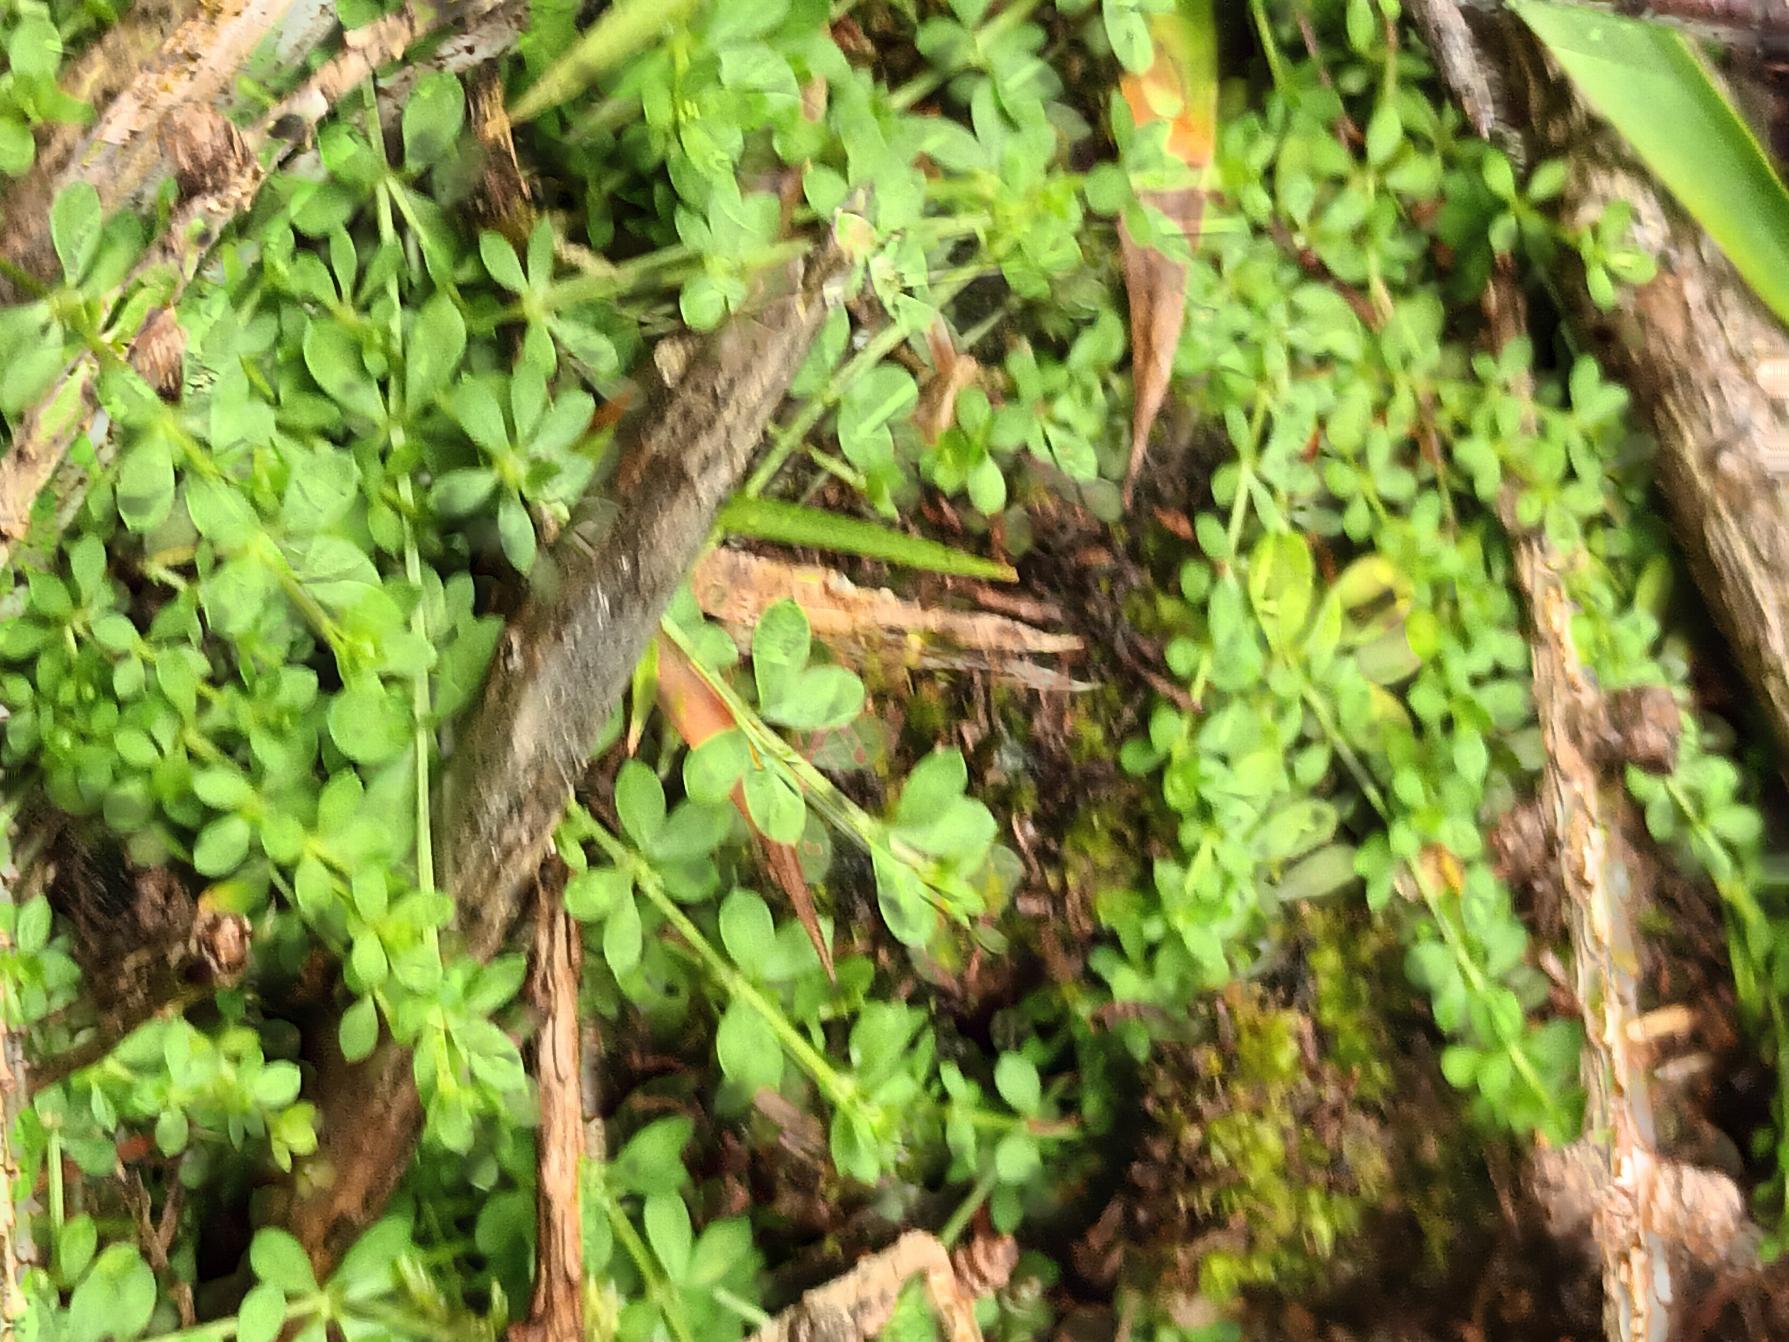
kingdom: Plantae
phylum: Tracheophyta
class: Magnoliopsida
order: Gentianales
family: Rubiaceae
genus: Galium
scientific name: Galium saxatile
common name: Lyng-snerre
